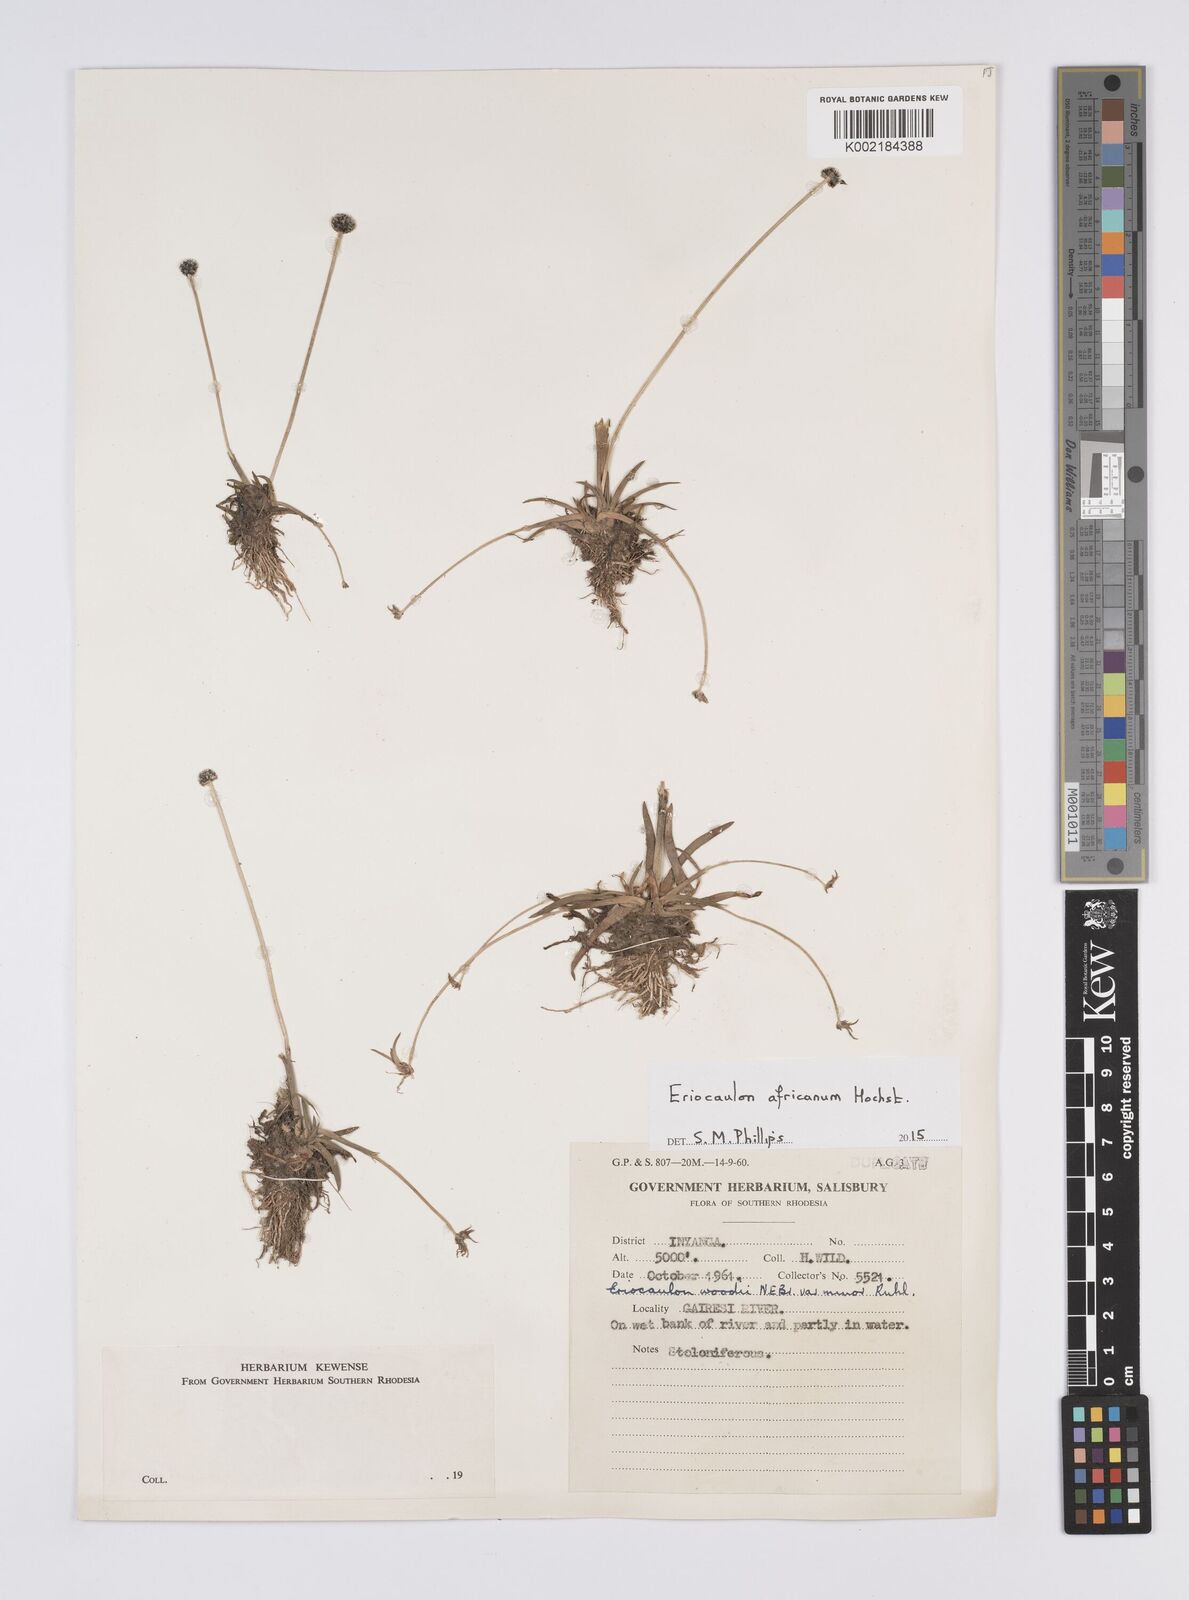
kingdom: Plantae
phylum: Tracheophyta
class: Liliopsida
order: Poales
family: Eriocaulaceae
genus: Eriocaulon
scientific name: Eriocaulon africanum
